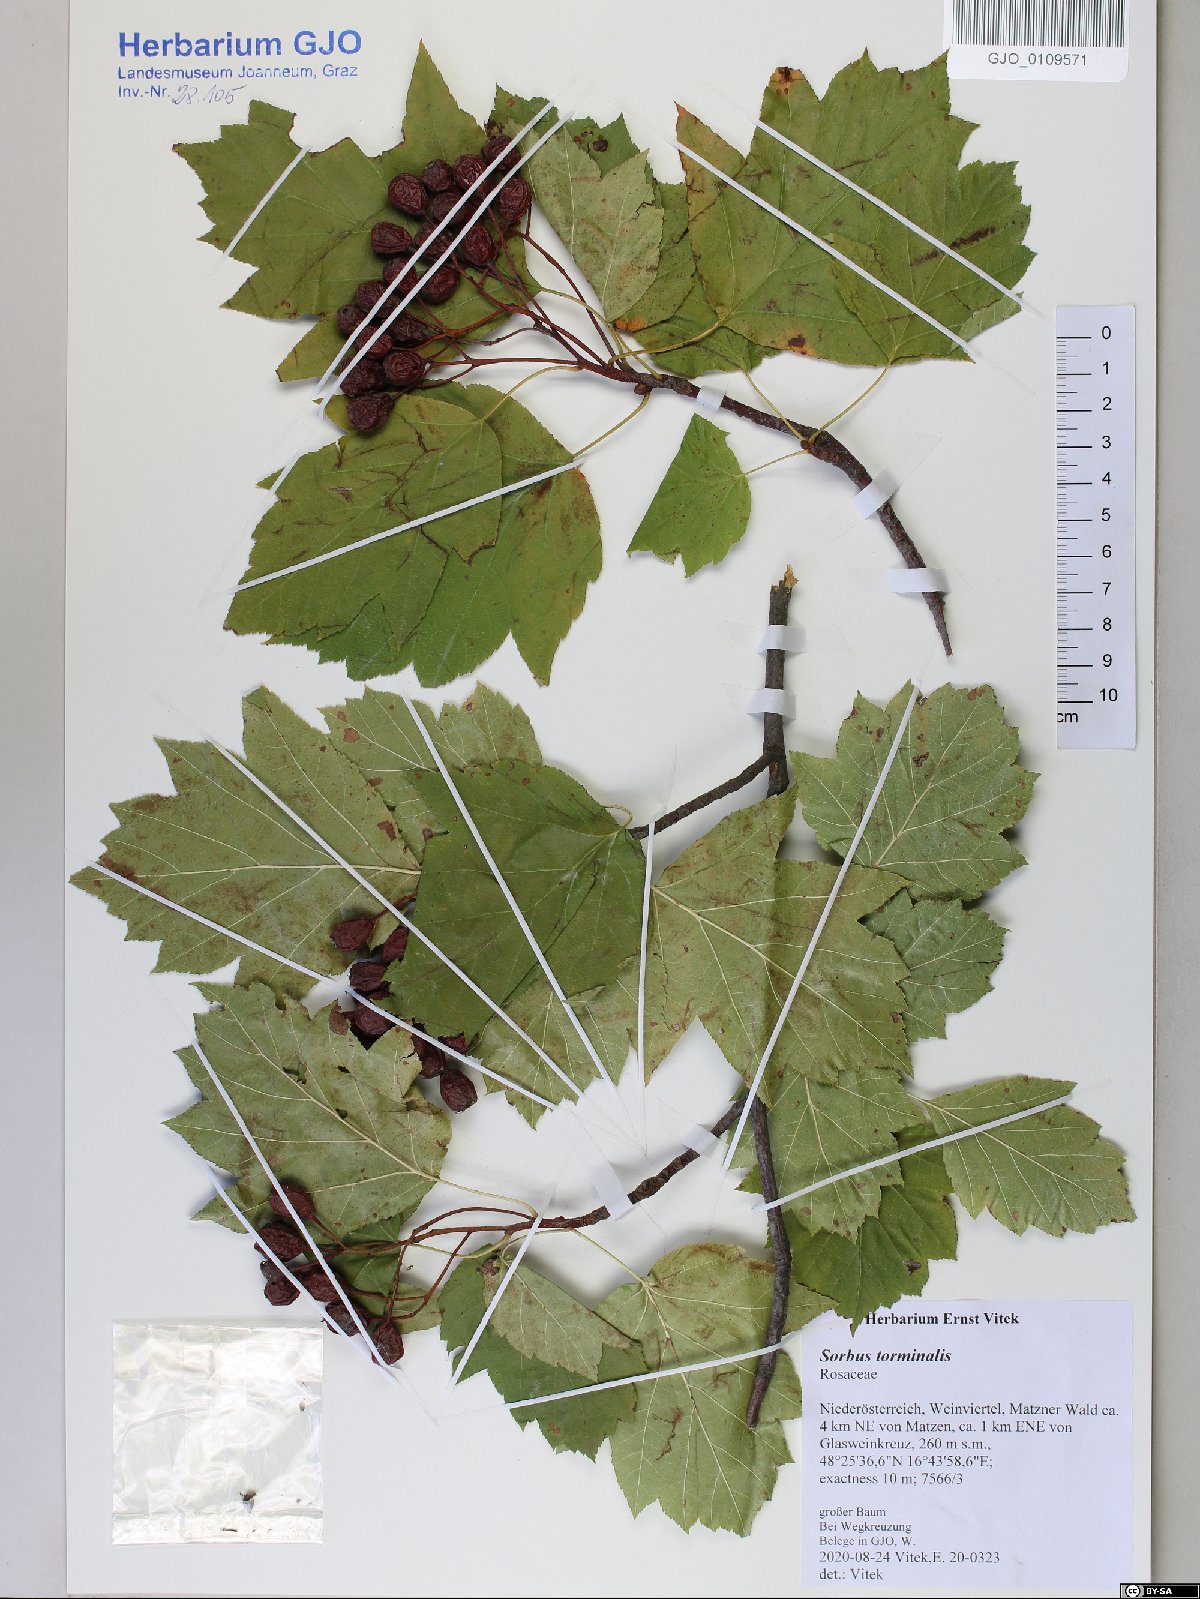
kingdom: Plantae
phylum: Tracheophyta
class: Magnoliopsida
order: Rosales
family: Rosaceae
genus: Torminalis
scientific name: Torminalis glaberrima
